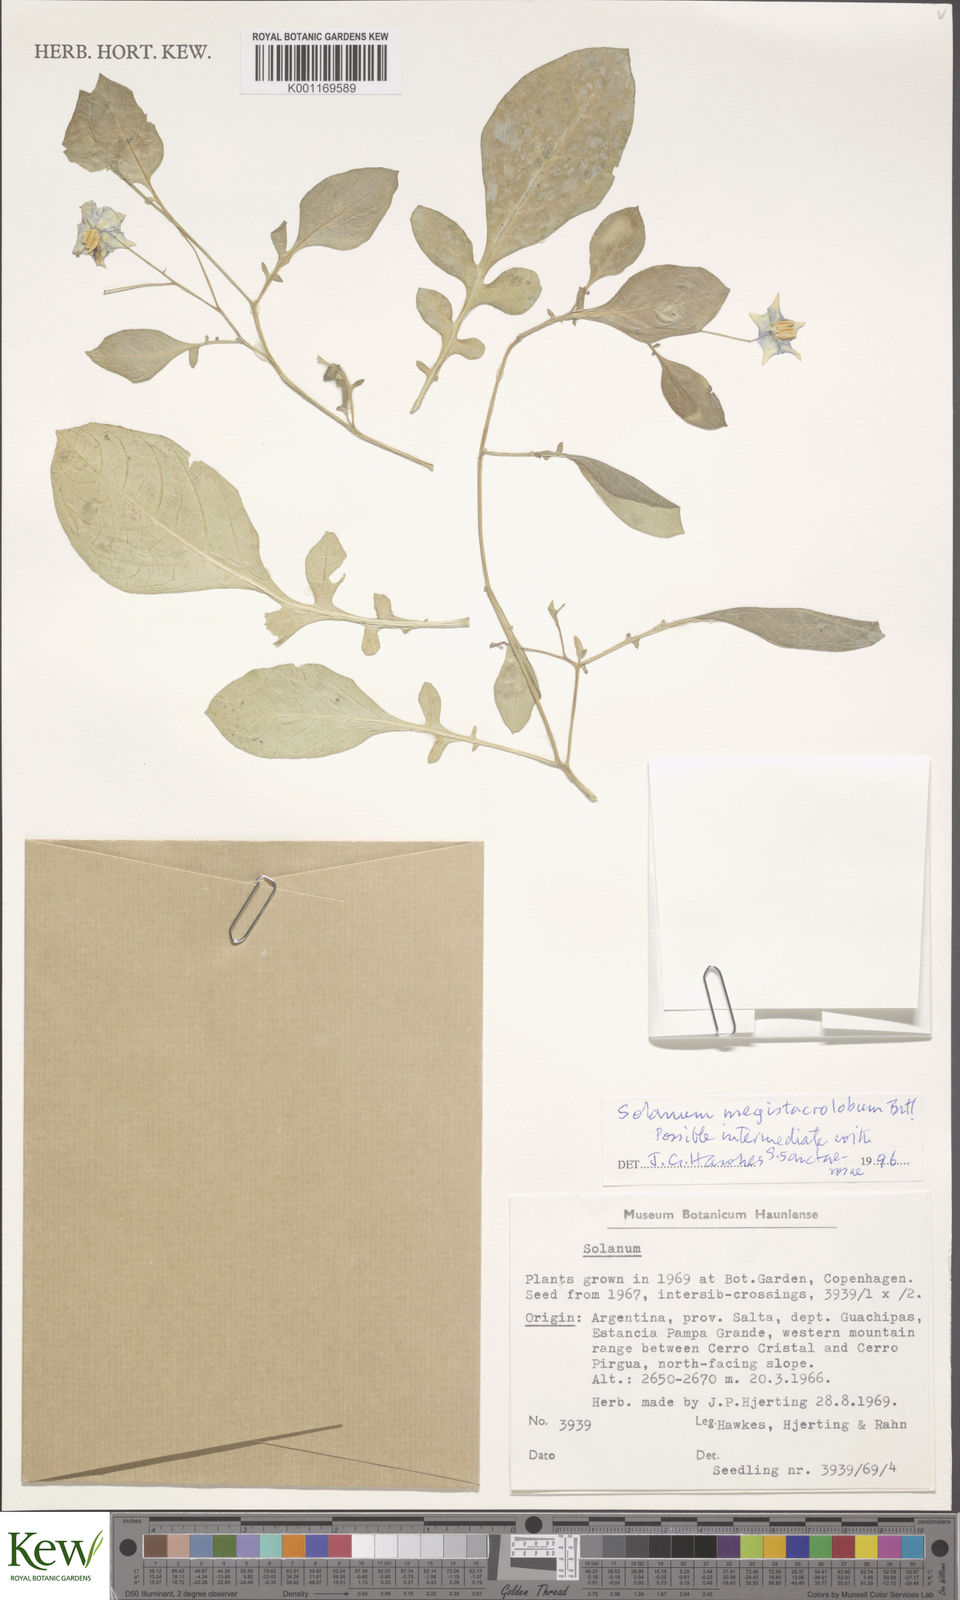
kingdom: Plantae
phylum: Tracheophyta
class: Magnoliopsida
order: Solanales
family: Solanaceae
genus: Solanum
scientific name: Solanum boliviense
